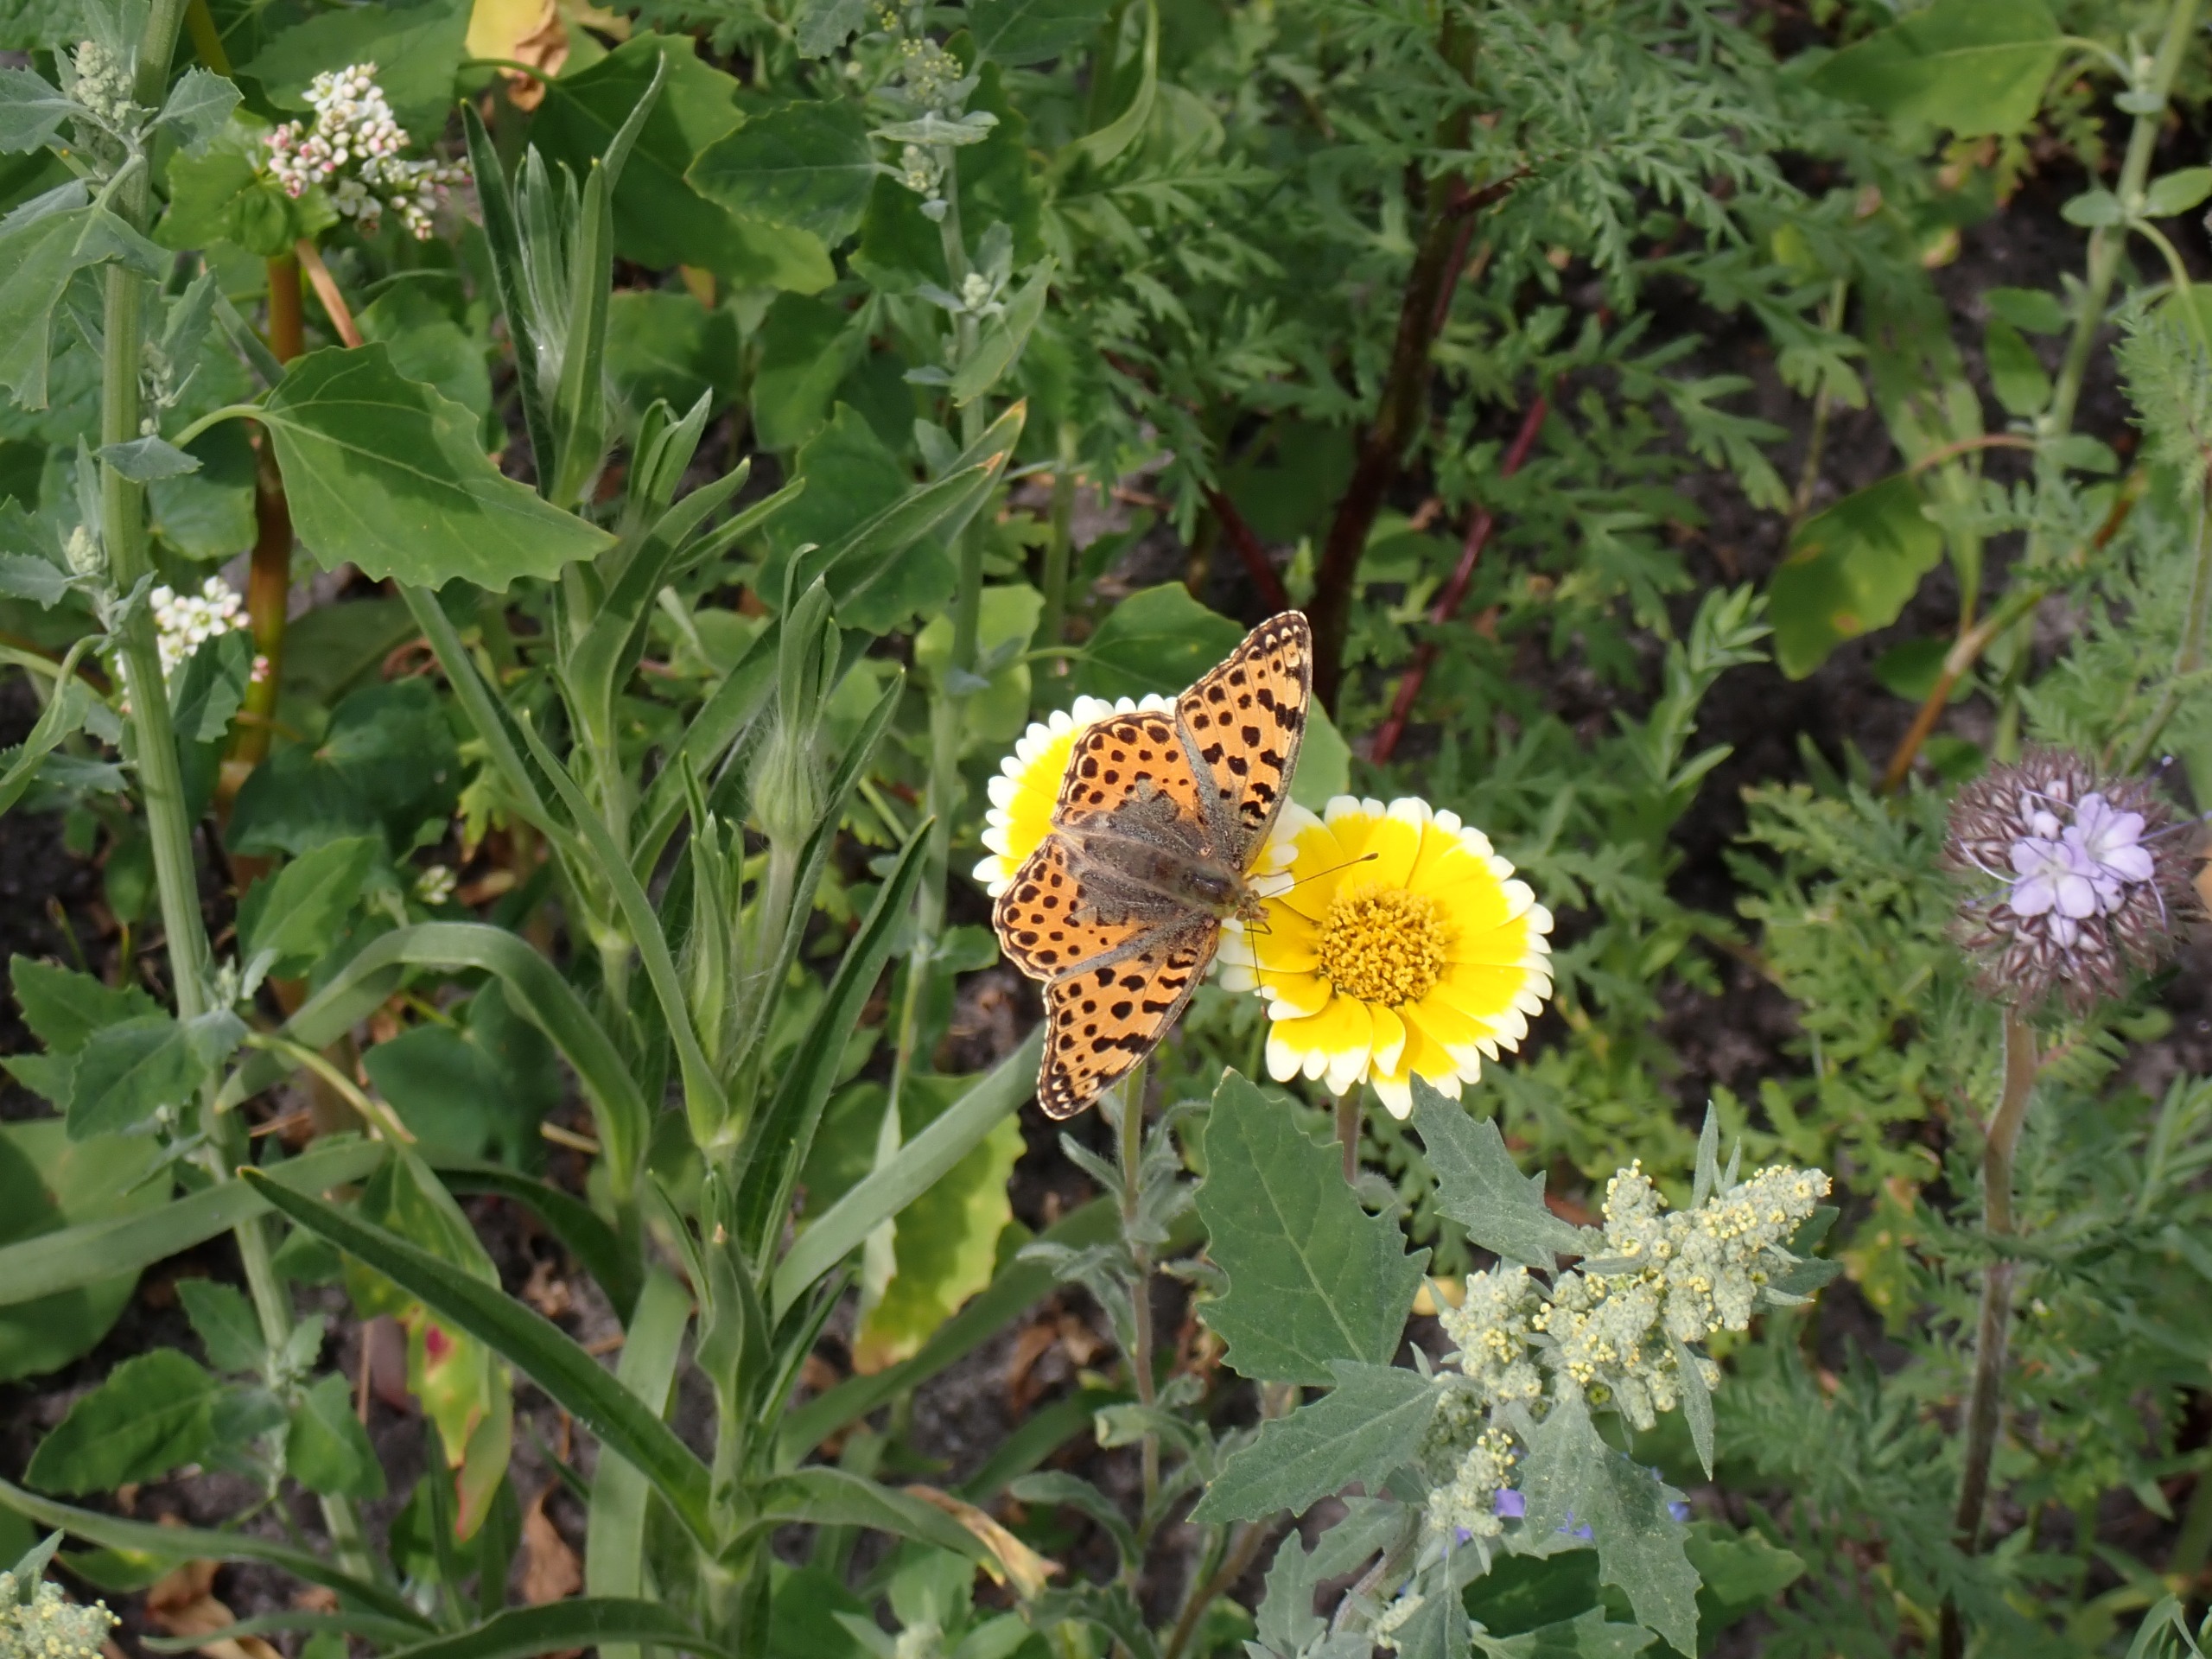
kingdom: Animalia
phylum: Arthropoda
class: Insecta
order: Lepidoptera
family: Nymphalidae
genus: Issoria
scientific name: Issoria lathonia
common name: Storplettet perlemorsommerfugl
